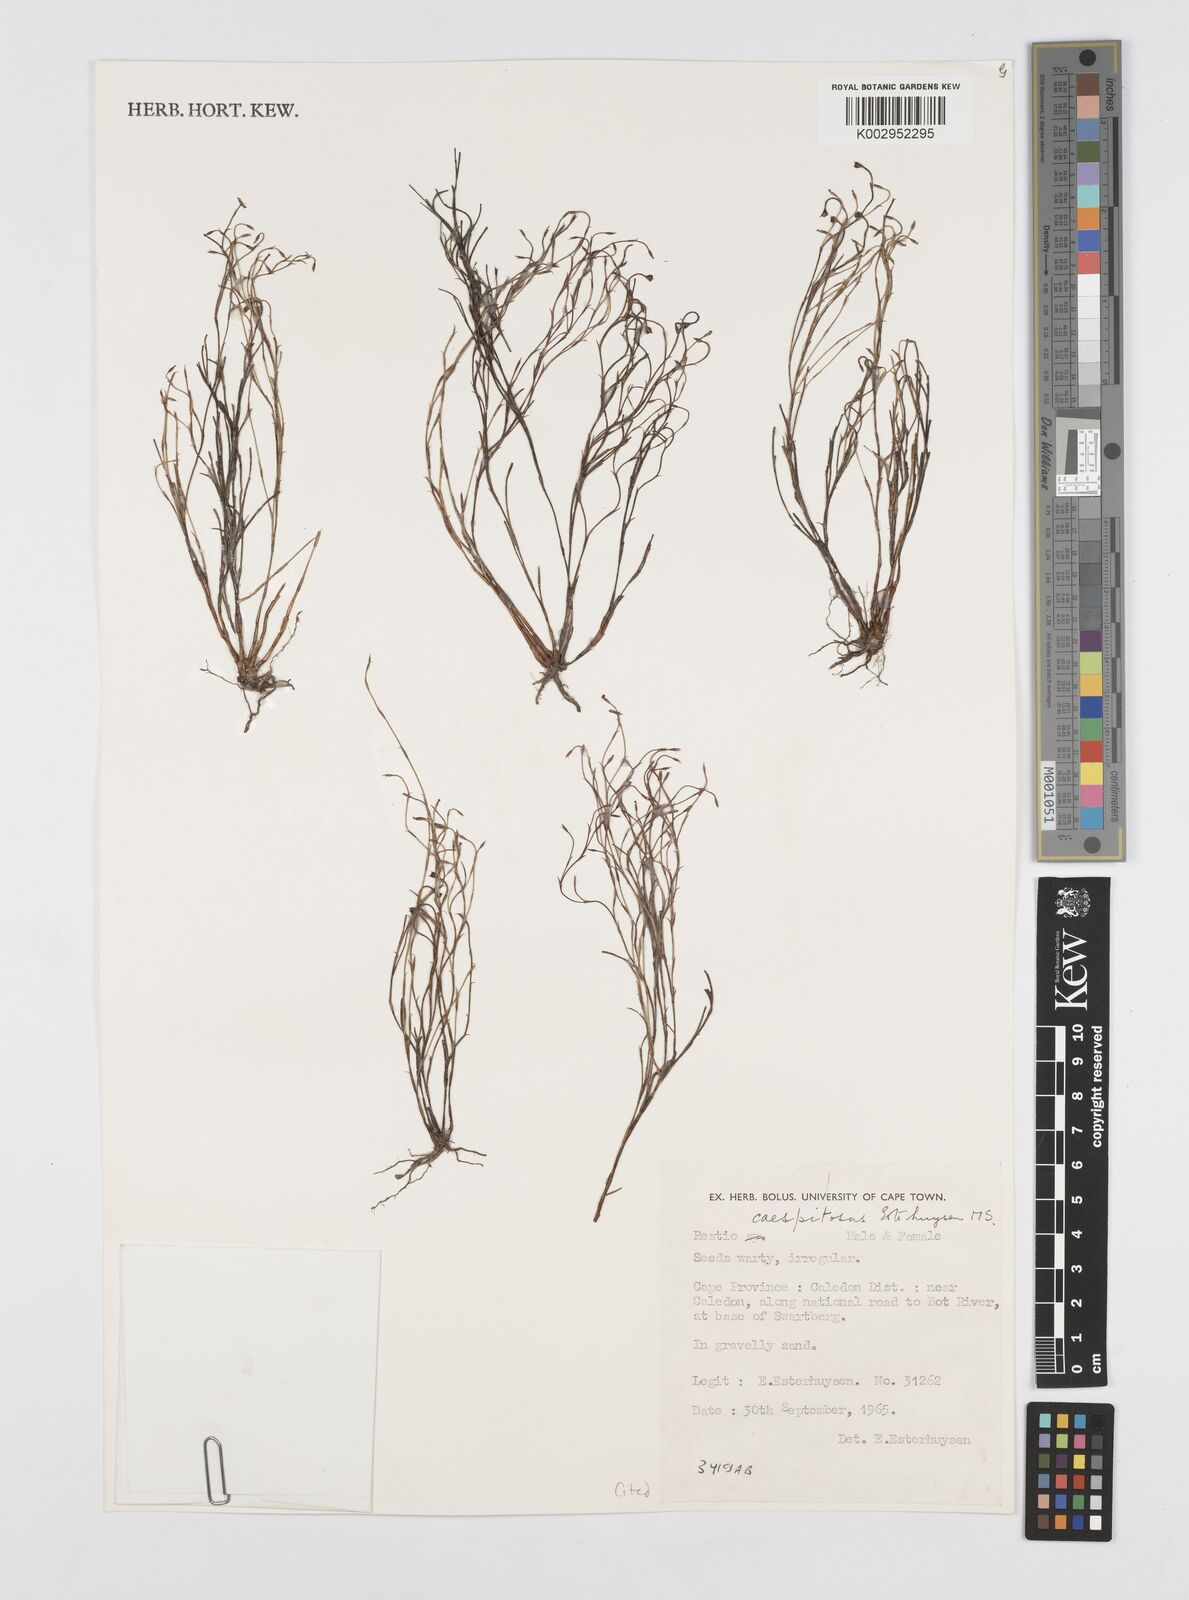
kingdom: Plantae
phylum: Tracheophyta
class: Liliopsida
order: Poales
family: Restionaceae
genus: Restio
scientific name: Restio caespitosus
